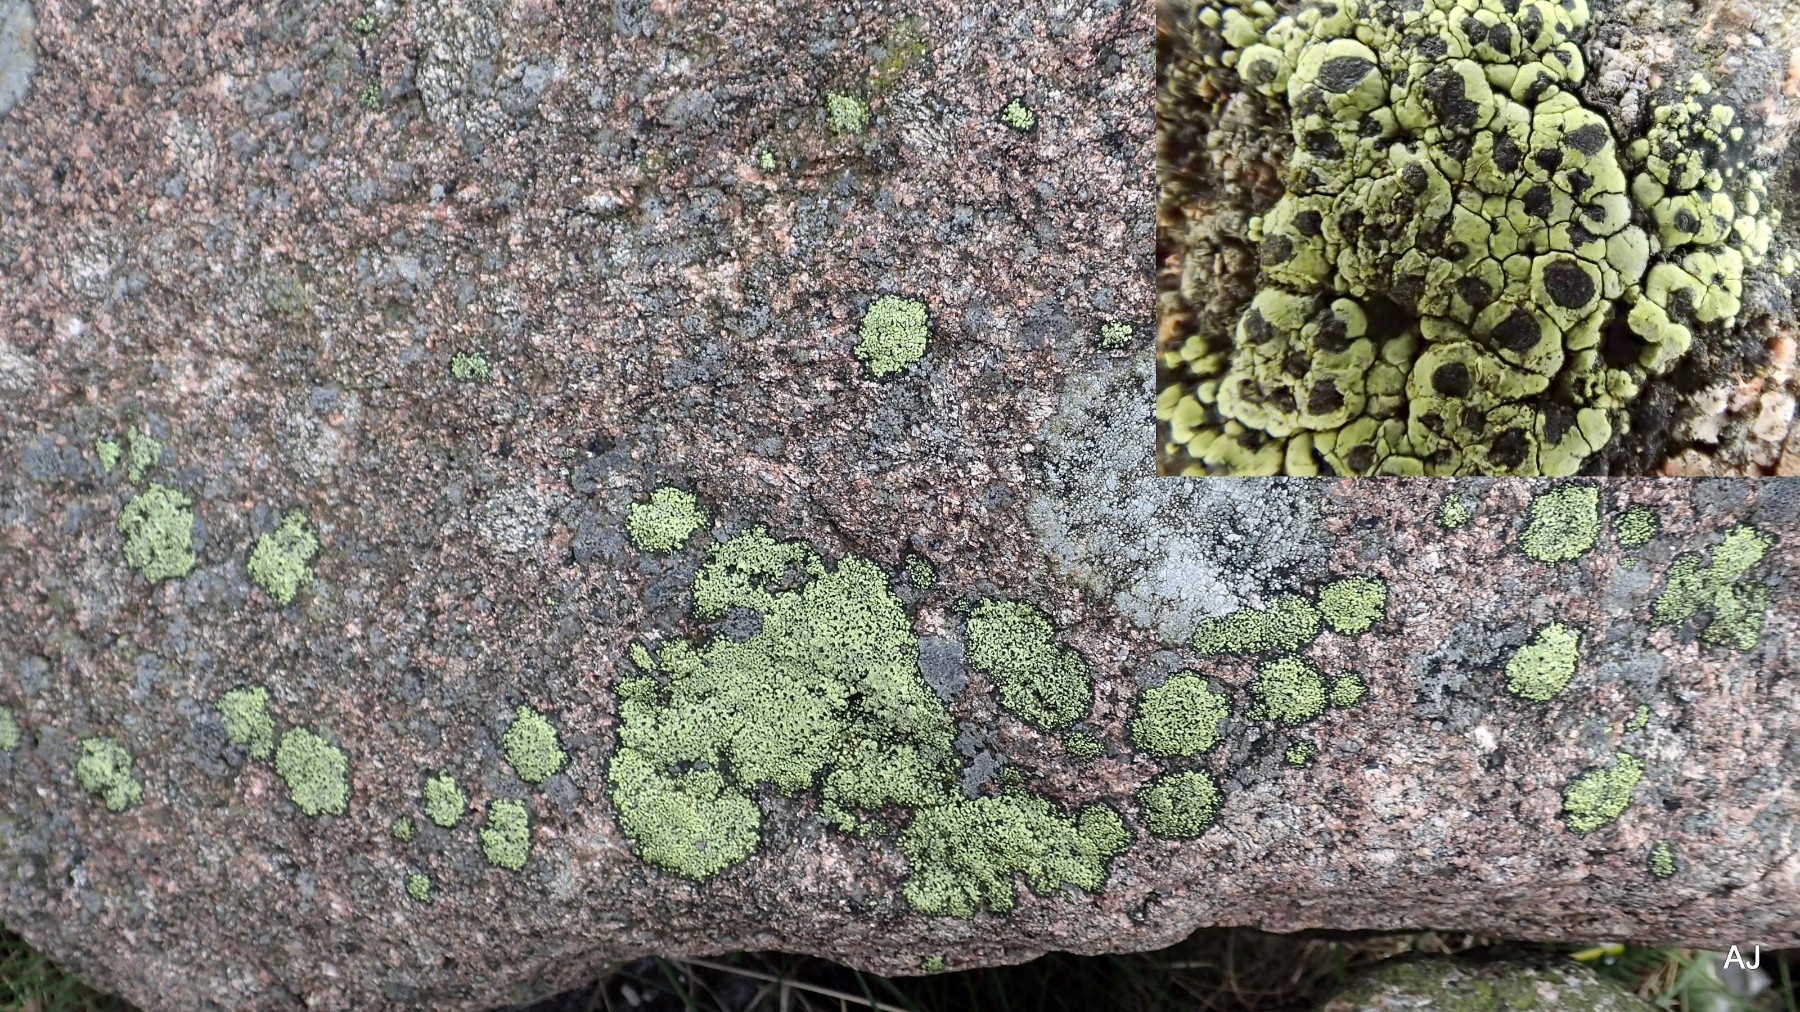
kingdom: Fungi
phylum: Ascomycota
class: Lecanoromycetes
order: Rhizocarpales
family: Rhizocarpaceae
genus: Rhizocarpon
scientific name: Rhizocarpon lecanorinum
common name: krave-landkortlav
